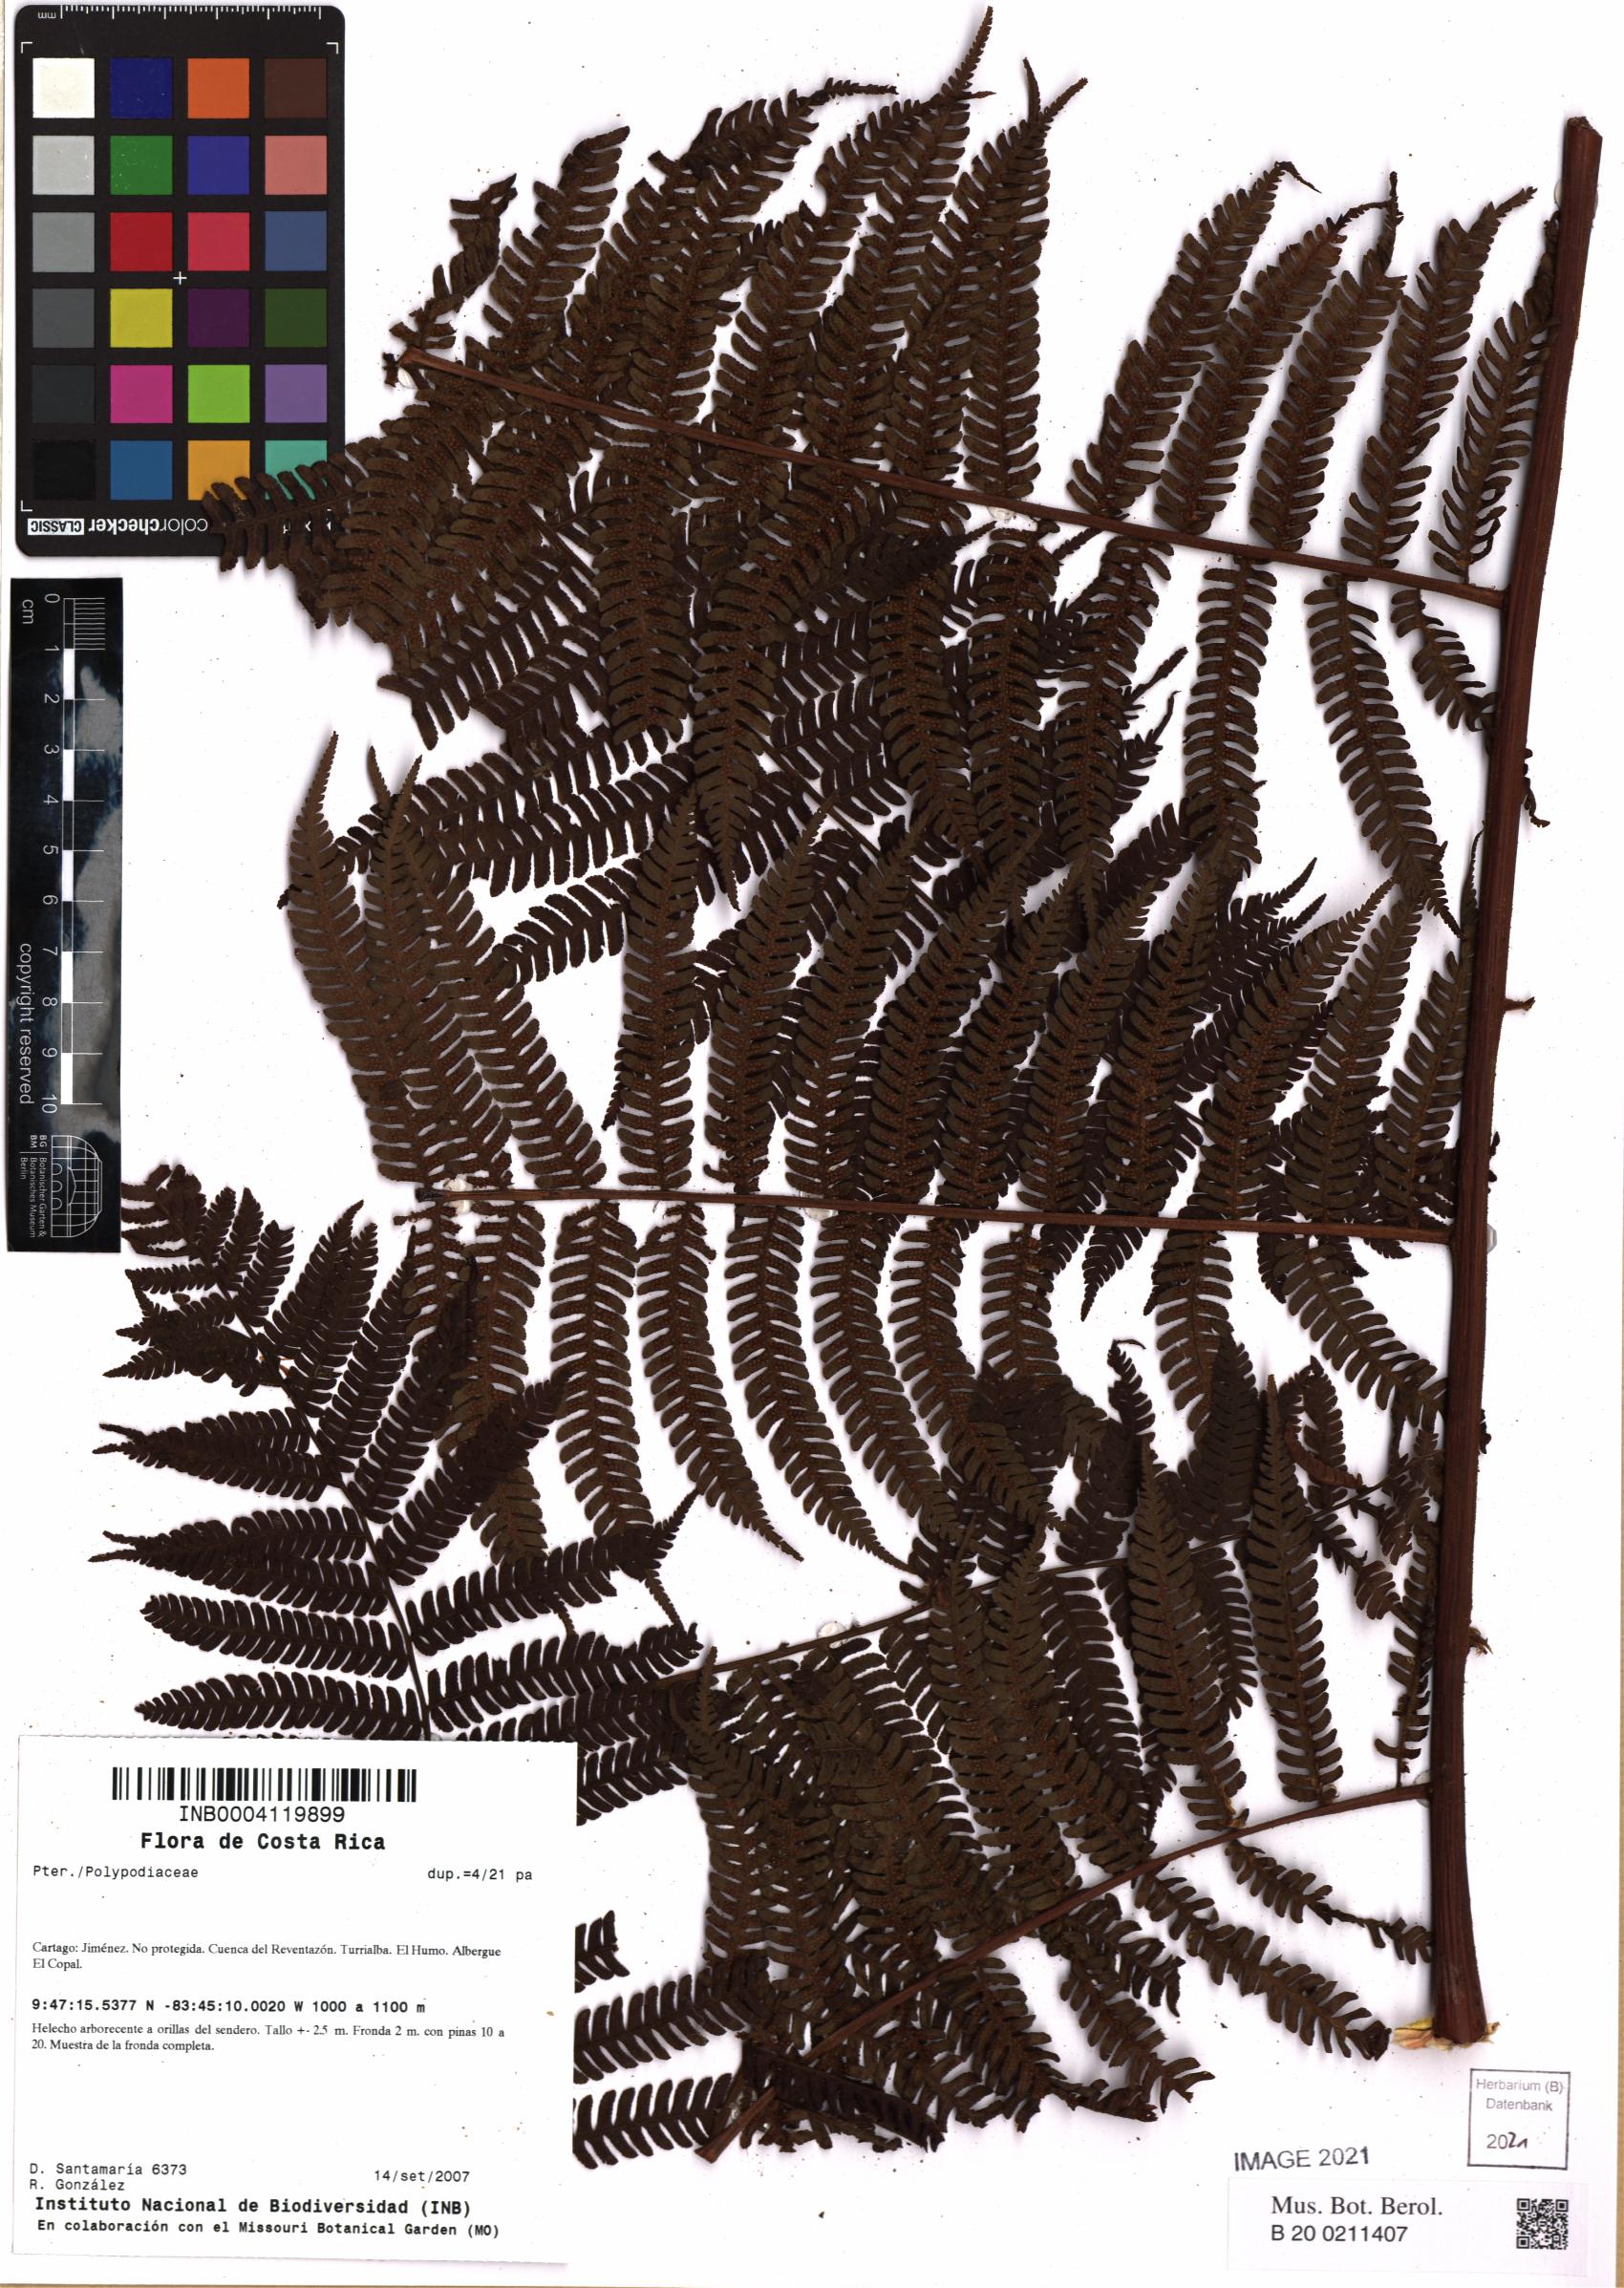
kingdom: Plantae
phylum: Tracheophyta
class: Polypodiopsida
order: Polypodiales
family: Polypodiaceae
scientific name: Polypodiaceae
